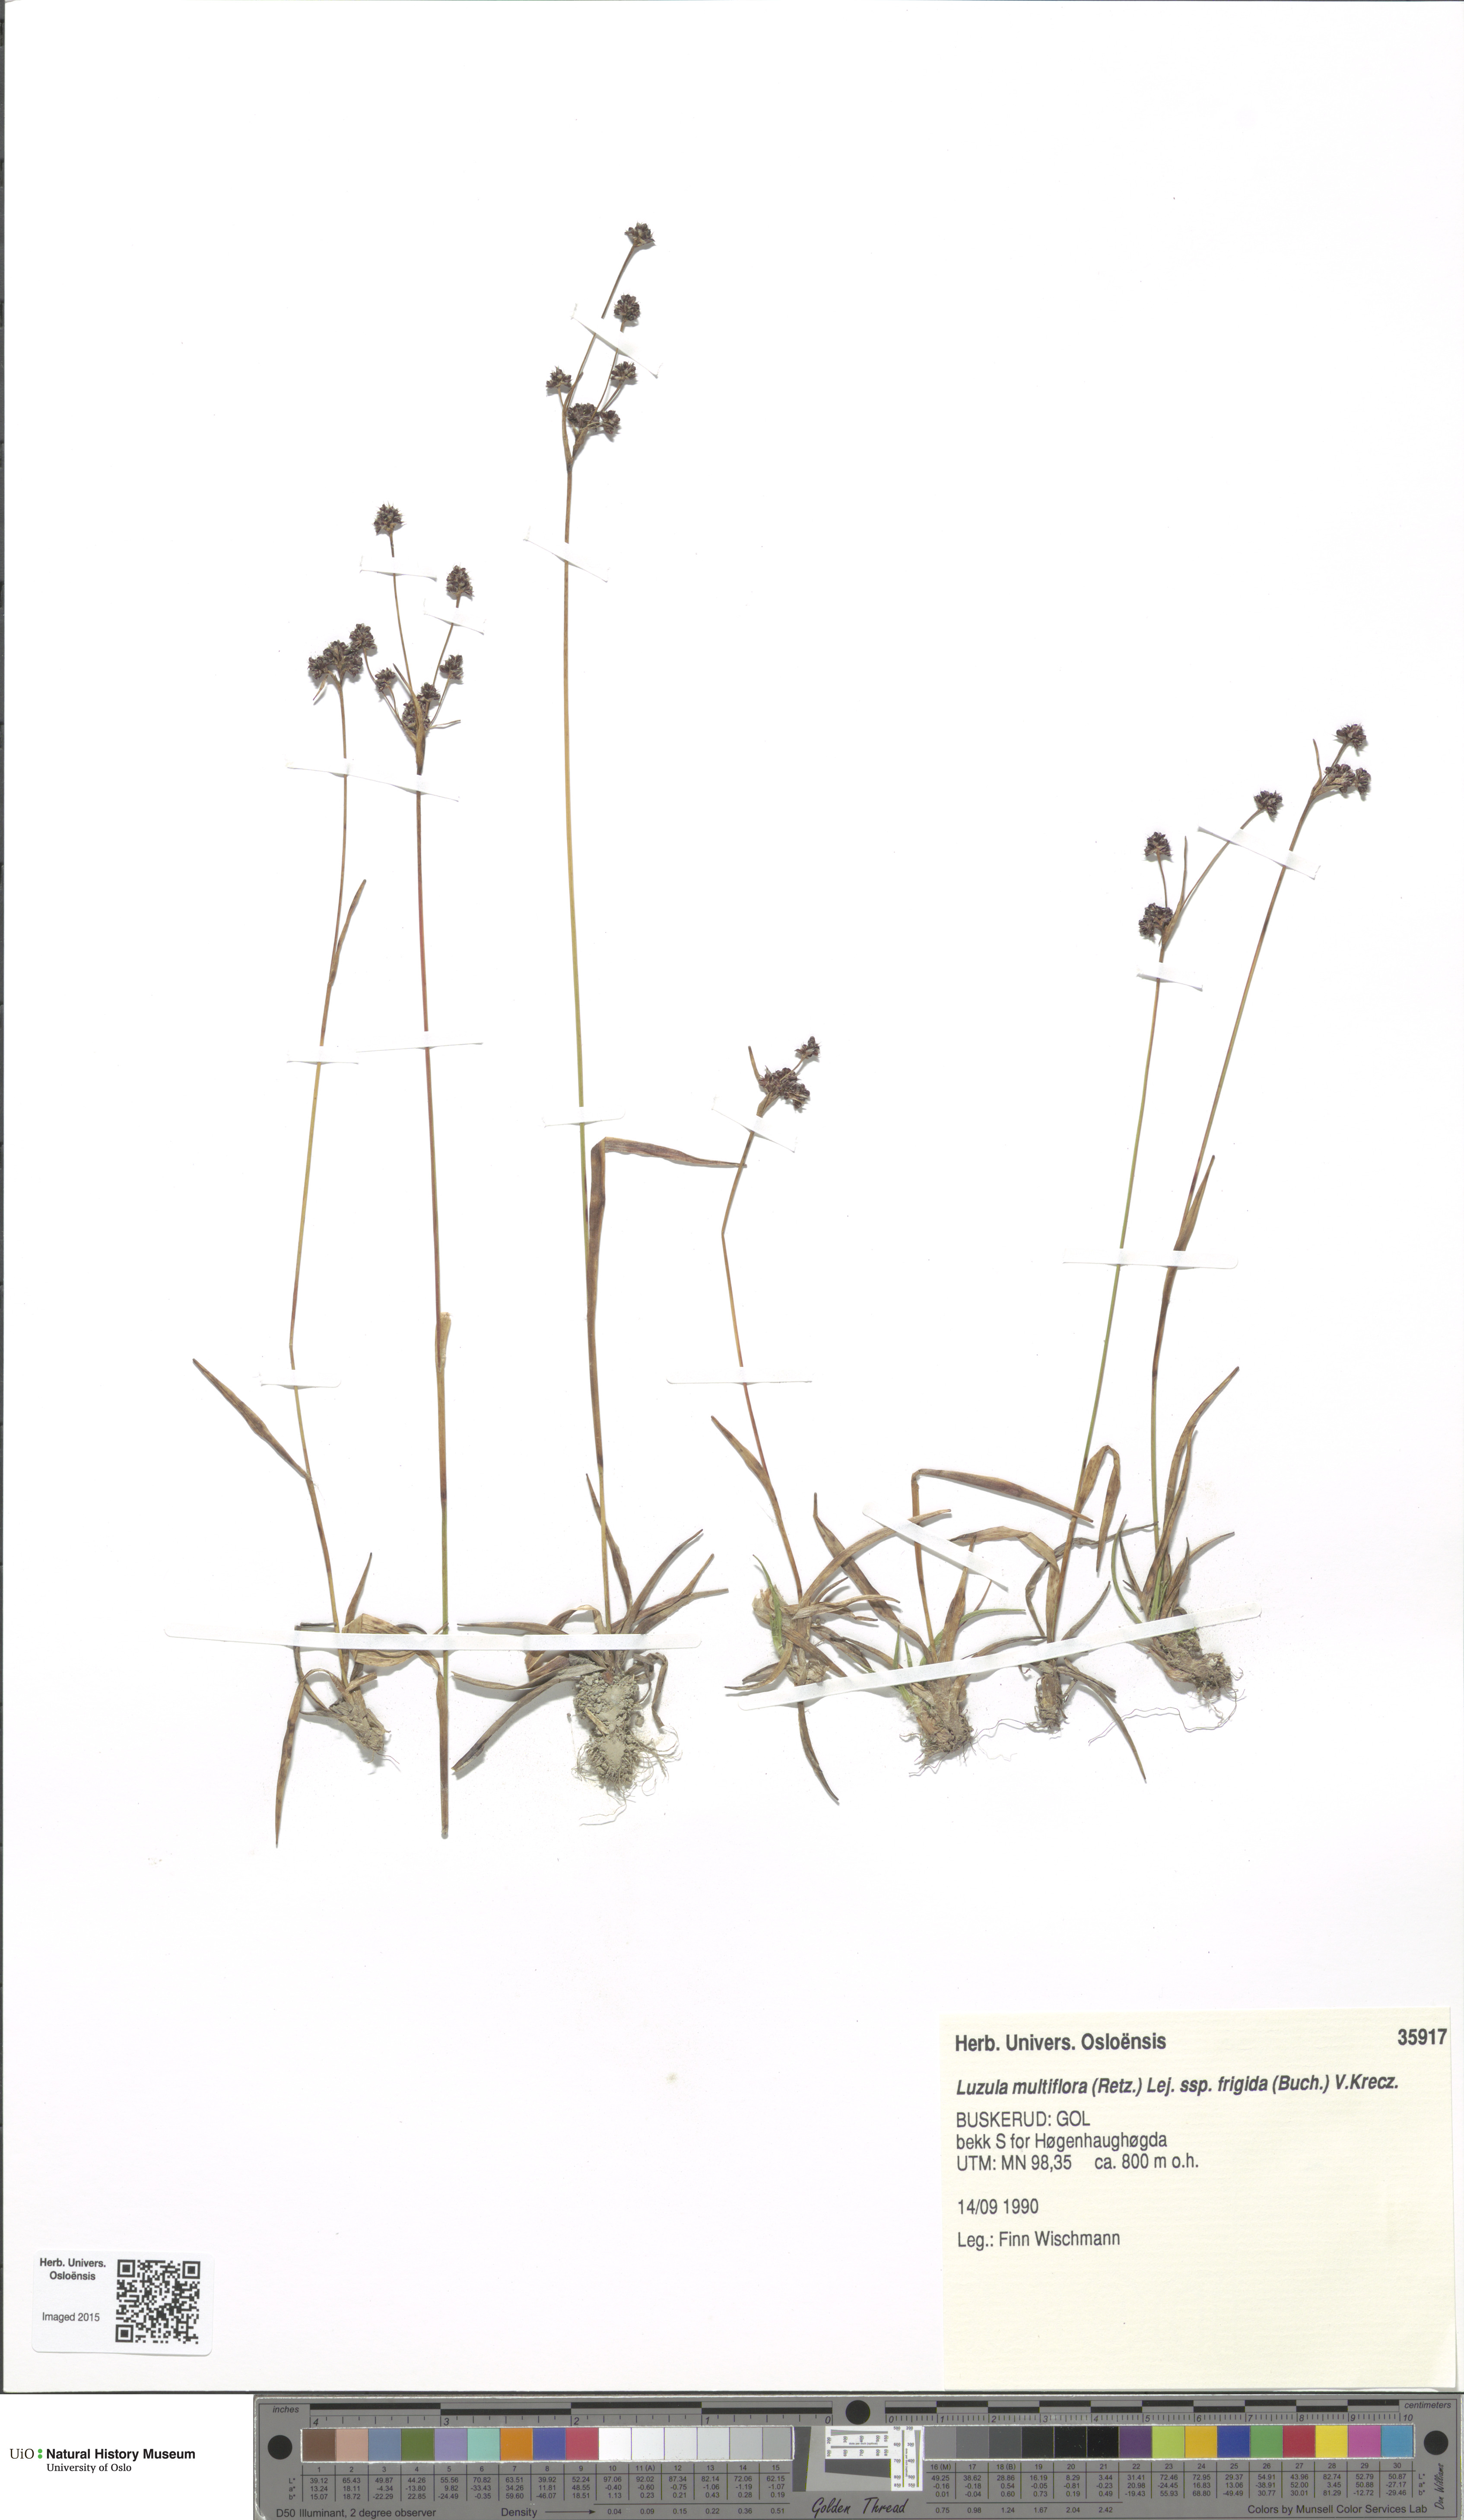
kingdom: Plantae
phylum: Tracheophyta
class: Liliopsida
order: Poales
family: Juncaceae
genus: Luzula
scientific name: Luzula multiflora
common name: Heath wood-rush
